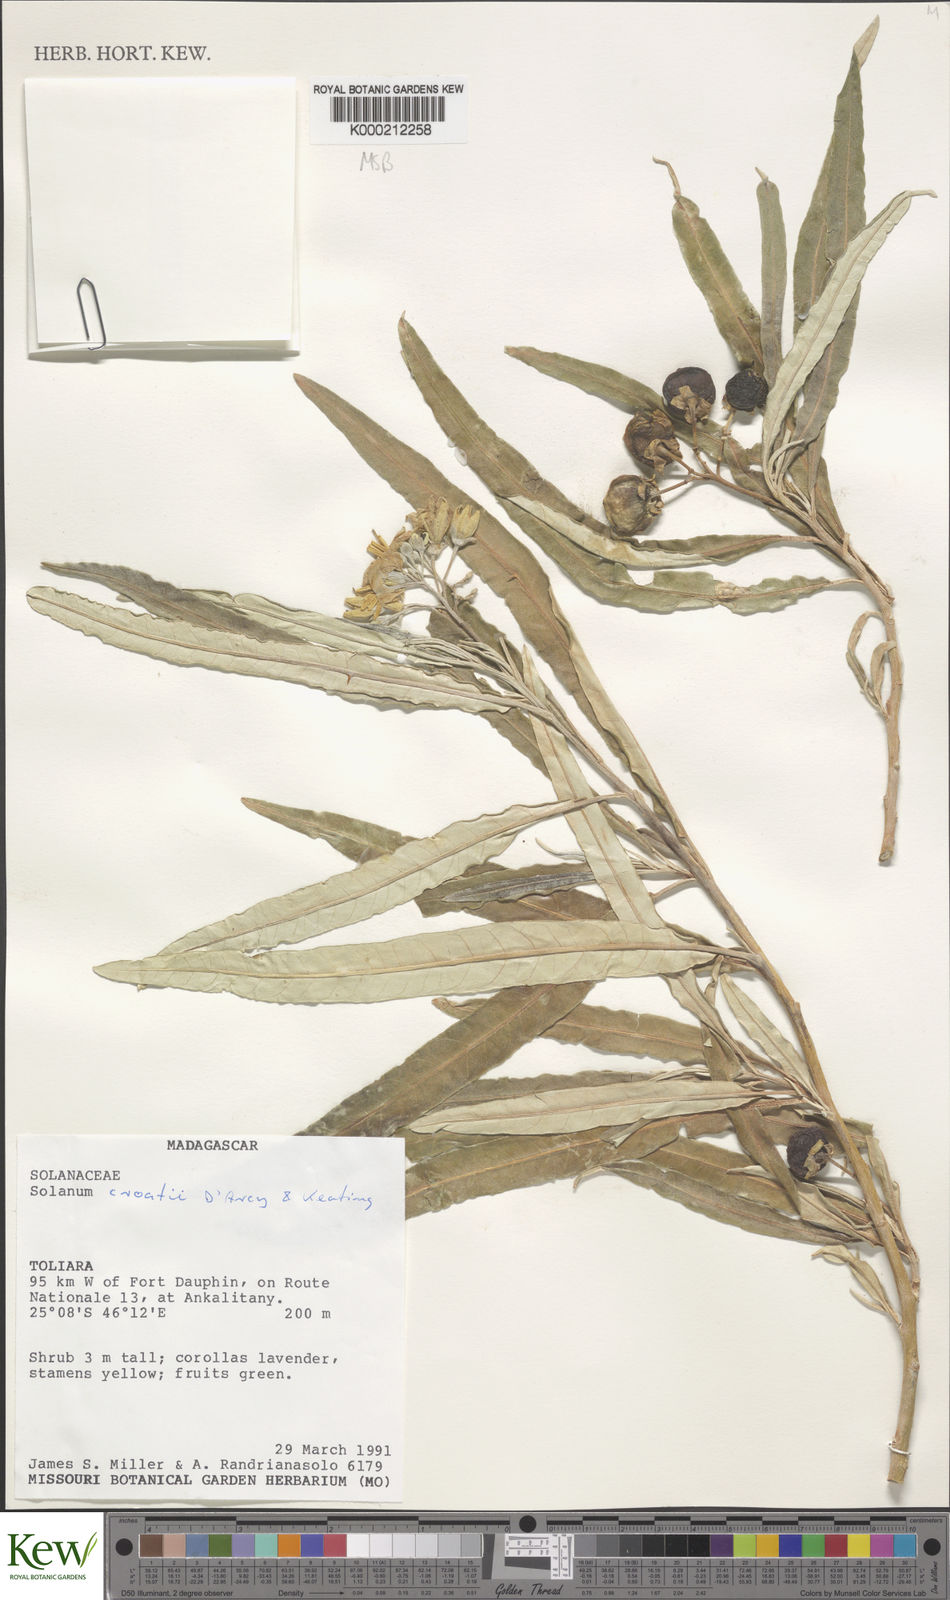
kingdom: Plantae
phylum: Tracheophyta
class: Magnoliopsida
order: Solanales
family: Solanaceae
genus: Solanum
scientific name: Solanum croatii
